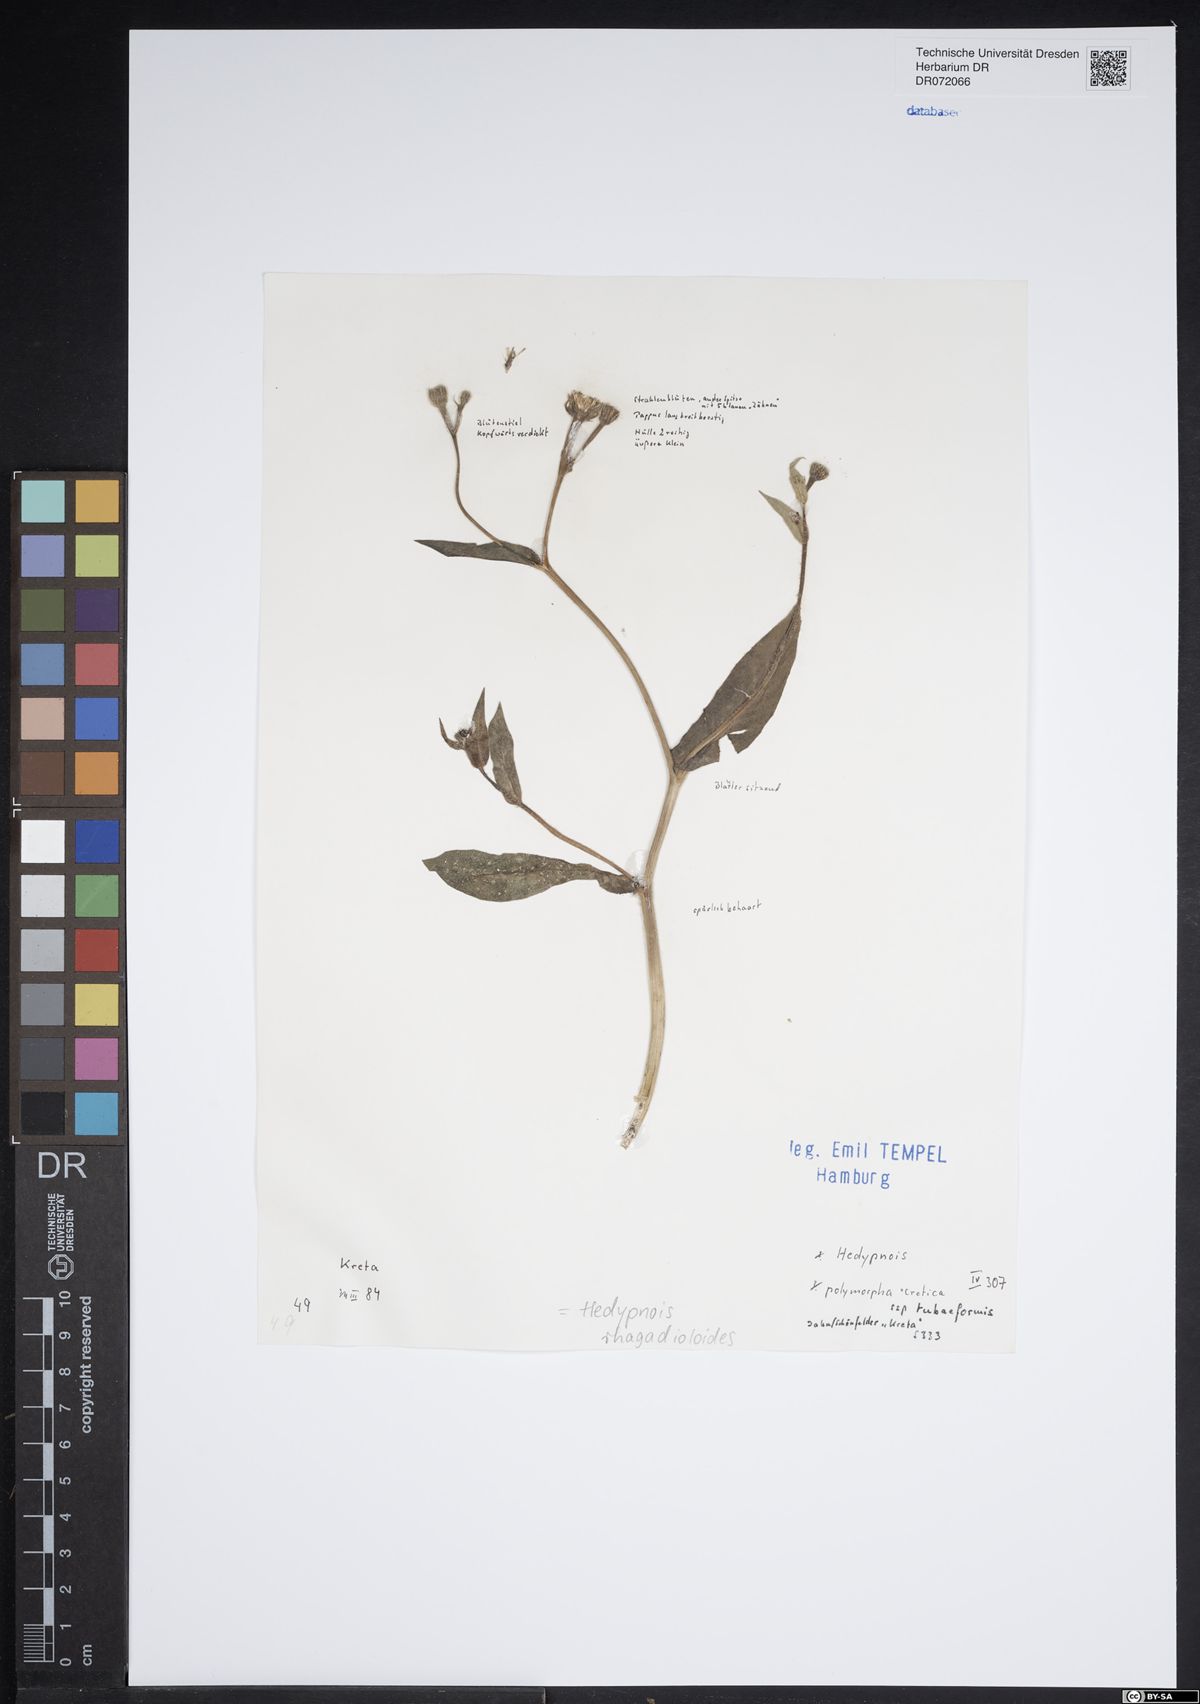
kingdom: Plantae
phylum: Tracheophyta
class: Magnoliopsida
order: Asterales
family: Asteraceae
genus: Hedypnois
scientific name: Hedypnois rhagadioloides
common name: Cretan weed
